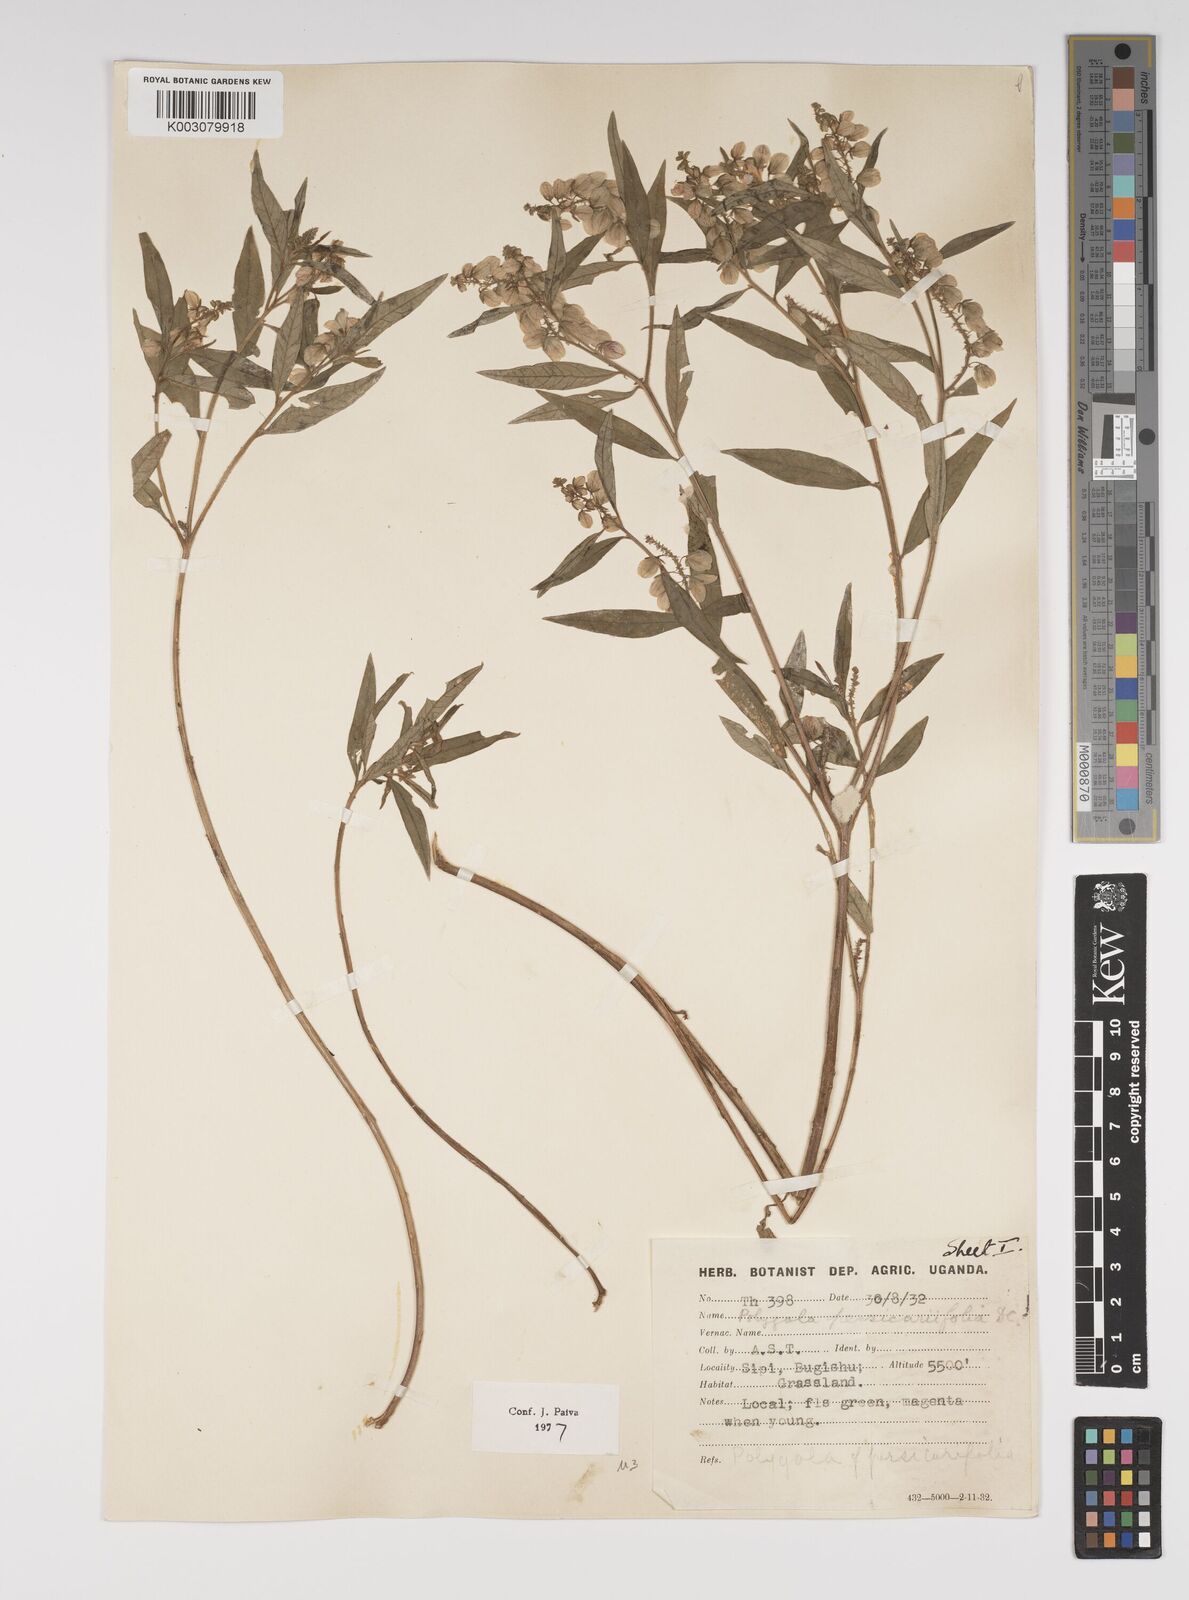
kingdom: Plantae
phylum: Tracheophyta
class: Magnoliopsida
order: Fabales
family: Polygalaceae
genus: Polygala
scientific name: Polygala persicariifolia
